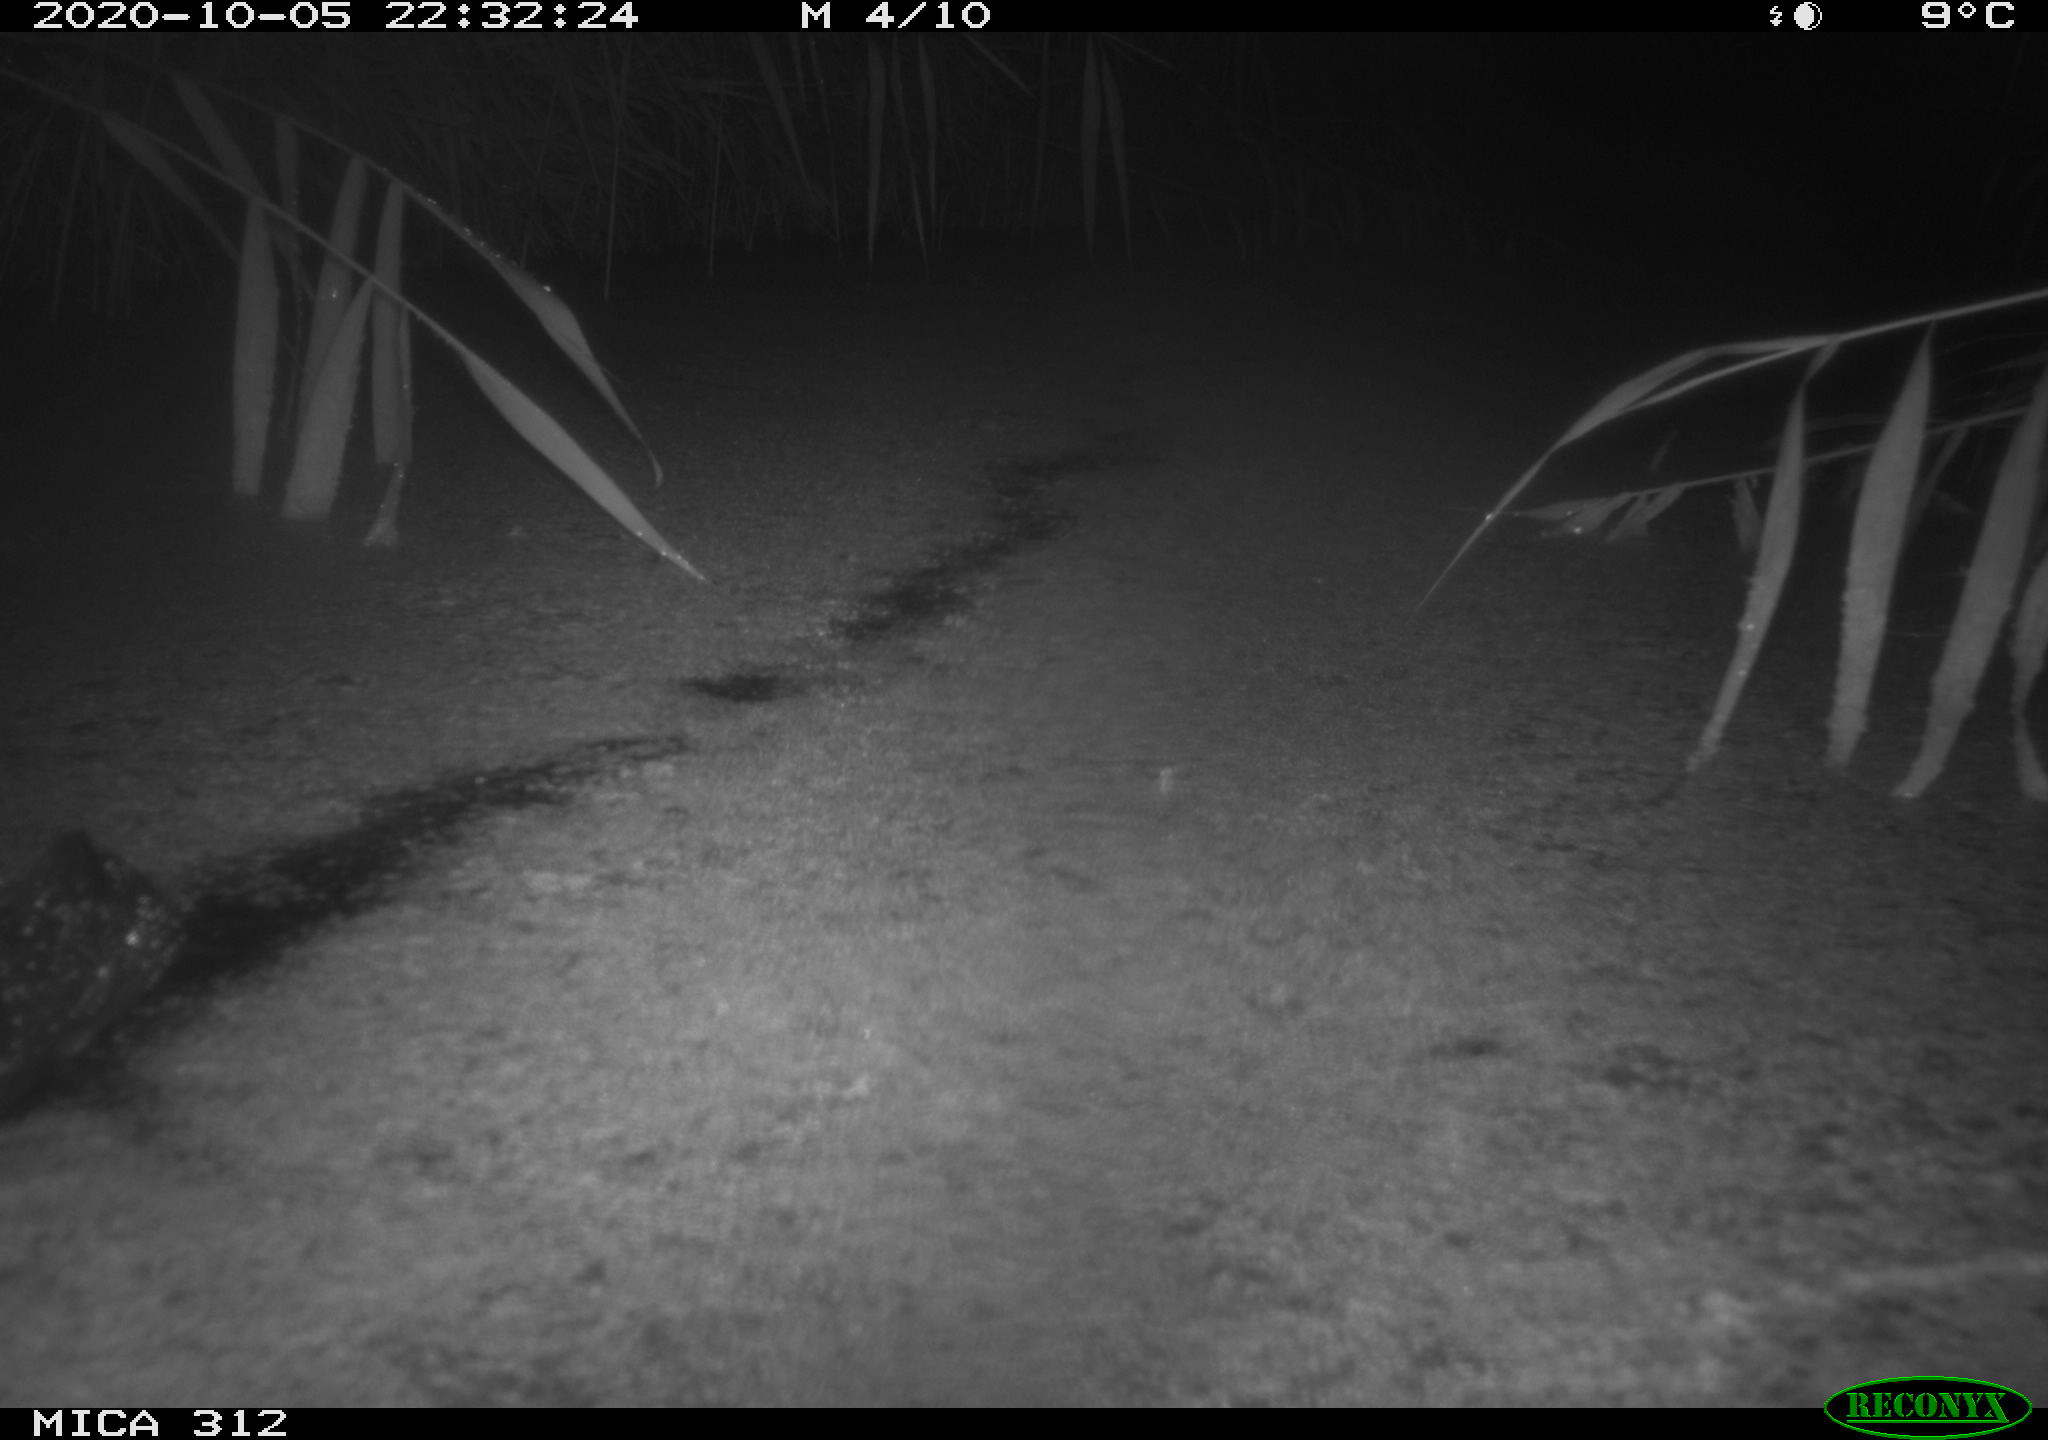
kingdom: Animalia
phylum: Chordata
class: Aves
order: Gruiformes
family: Rallidae
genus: Gallinula
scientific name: Gallinula chloropus
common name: Common moorhen
